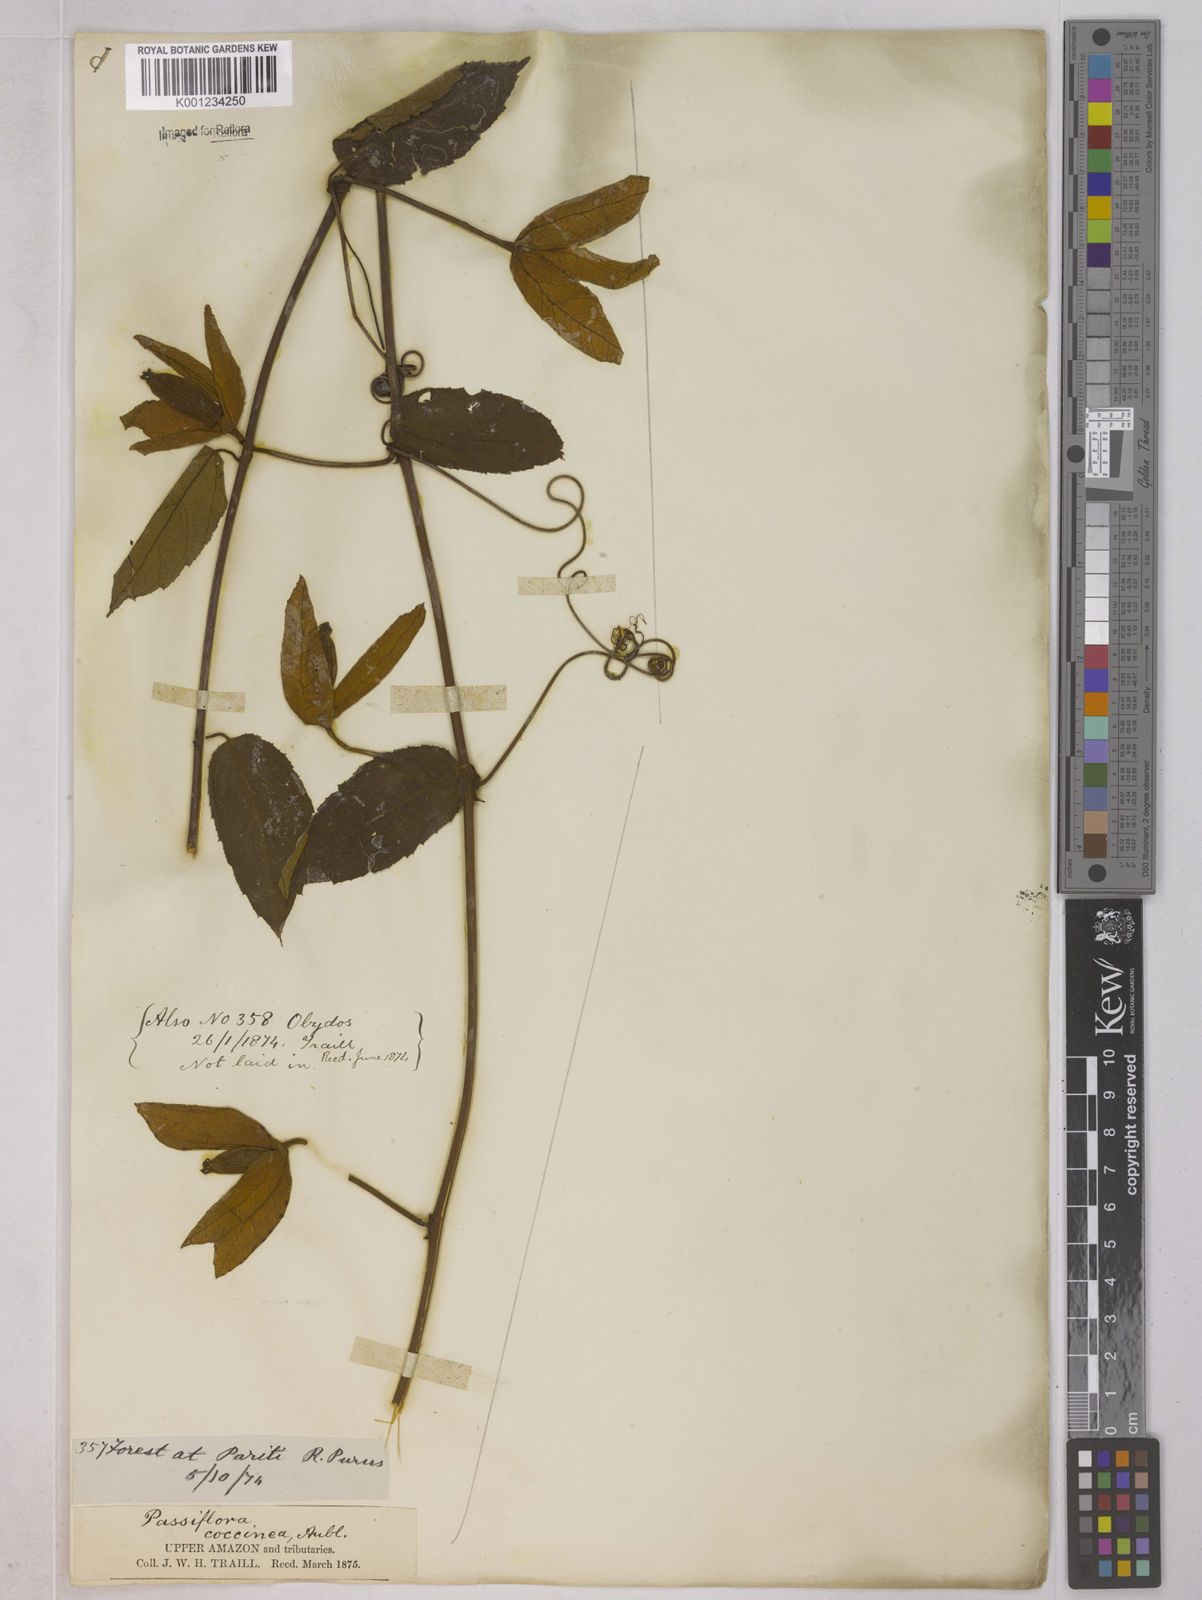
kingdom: Plantae
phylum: Tracheophyta
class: Magnoliopsida
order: Malpighiales
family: Passifloraceae
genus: Passiflora
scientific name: Passiflora coccinea
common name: Scarlet passionflower
